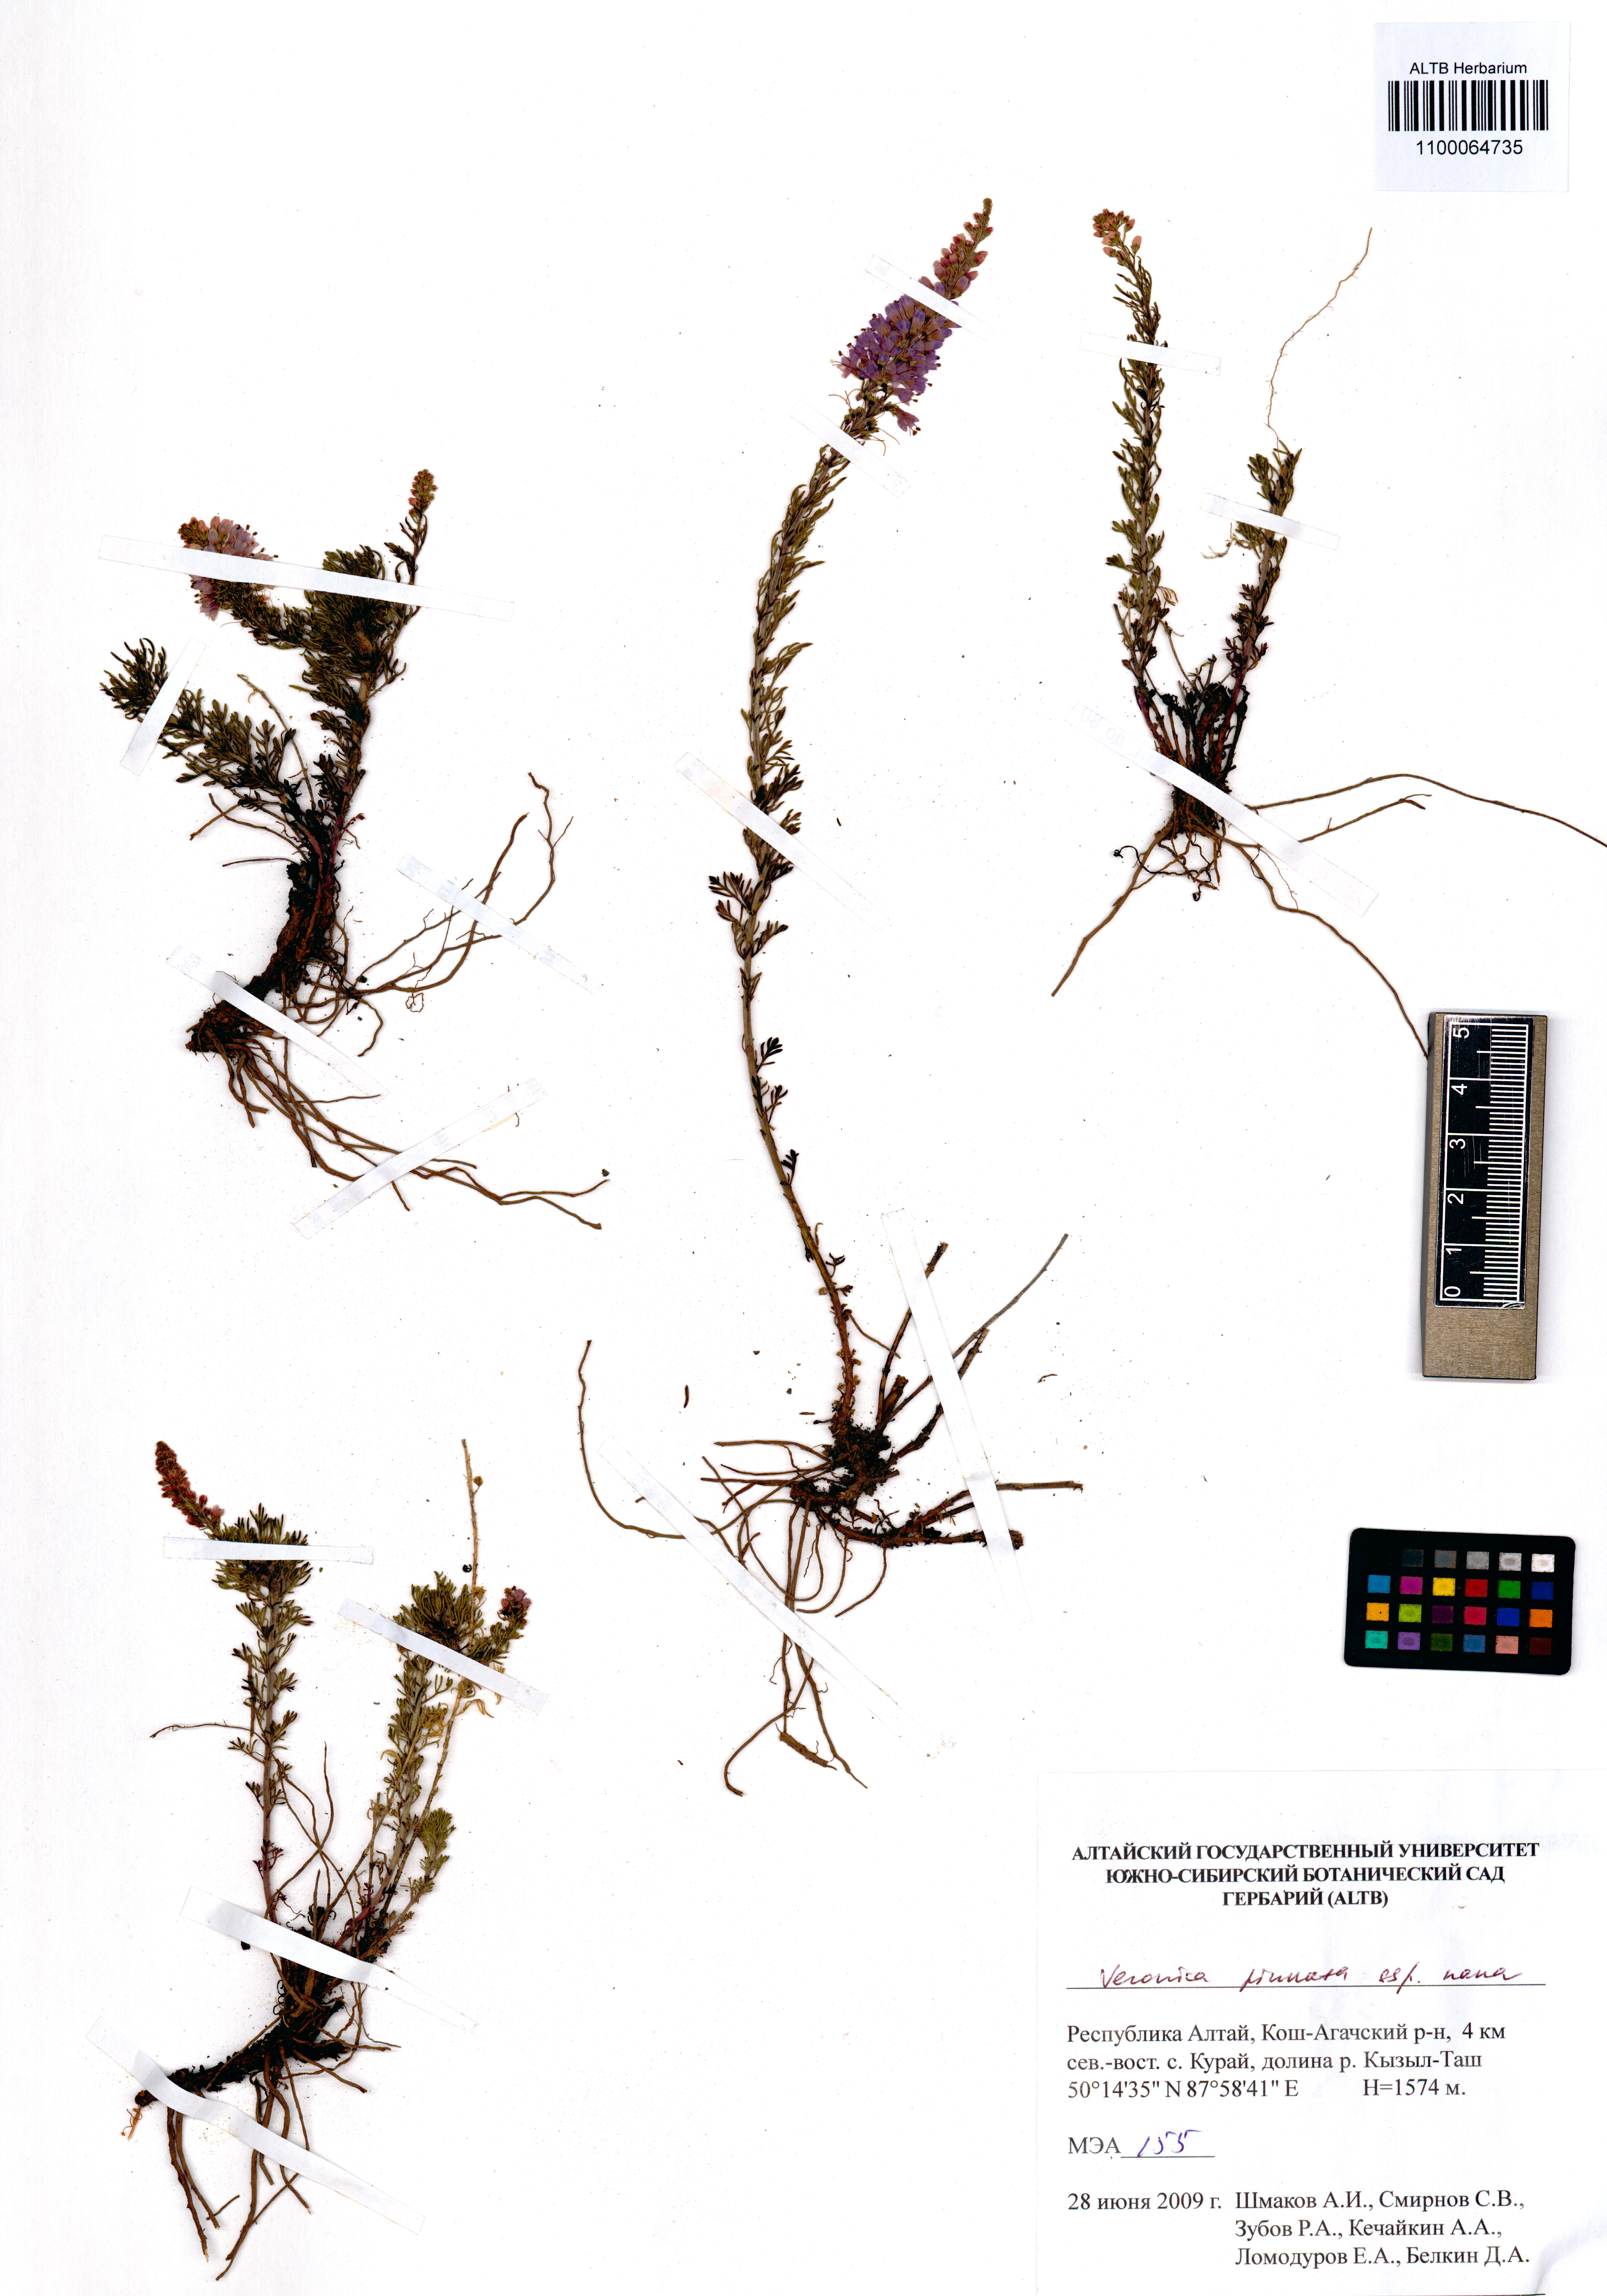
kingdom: Plantae
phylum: Tracheophyta
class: Magnoliopsida
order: Lamiales
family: Plantaginaceae
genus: Veronica
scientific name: Veronica pinnata
